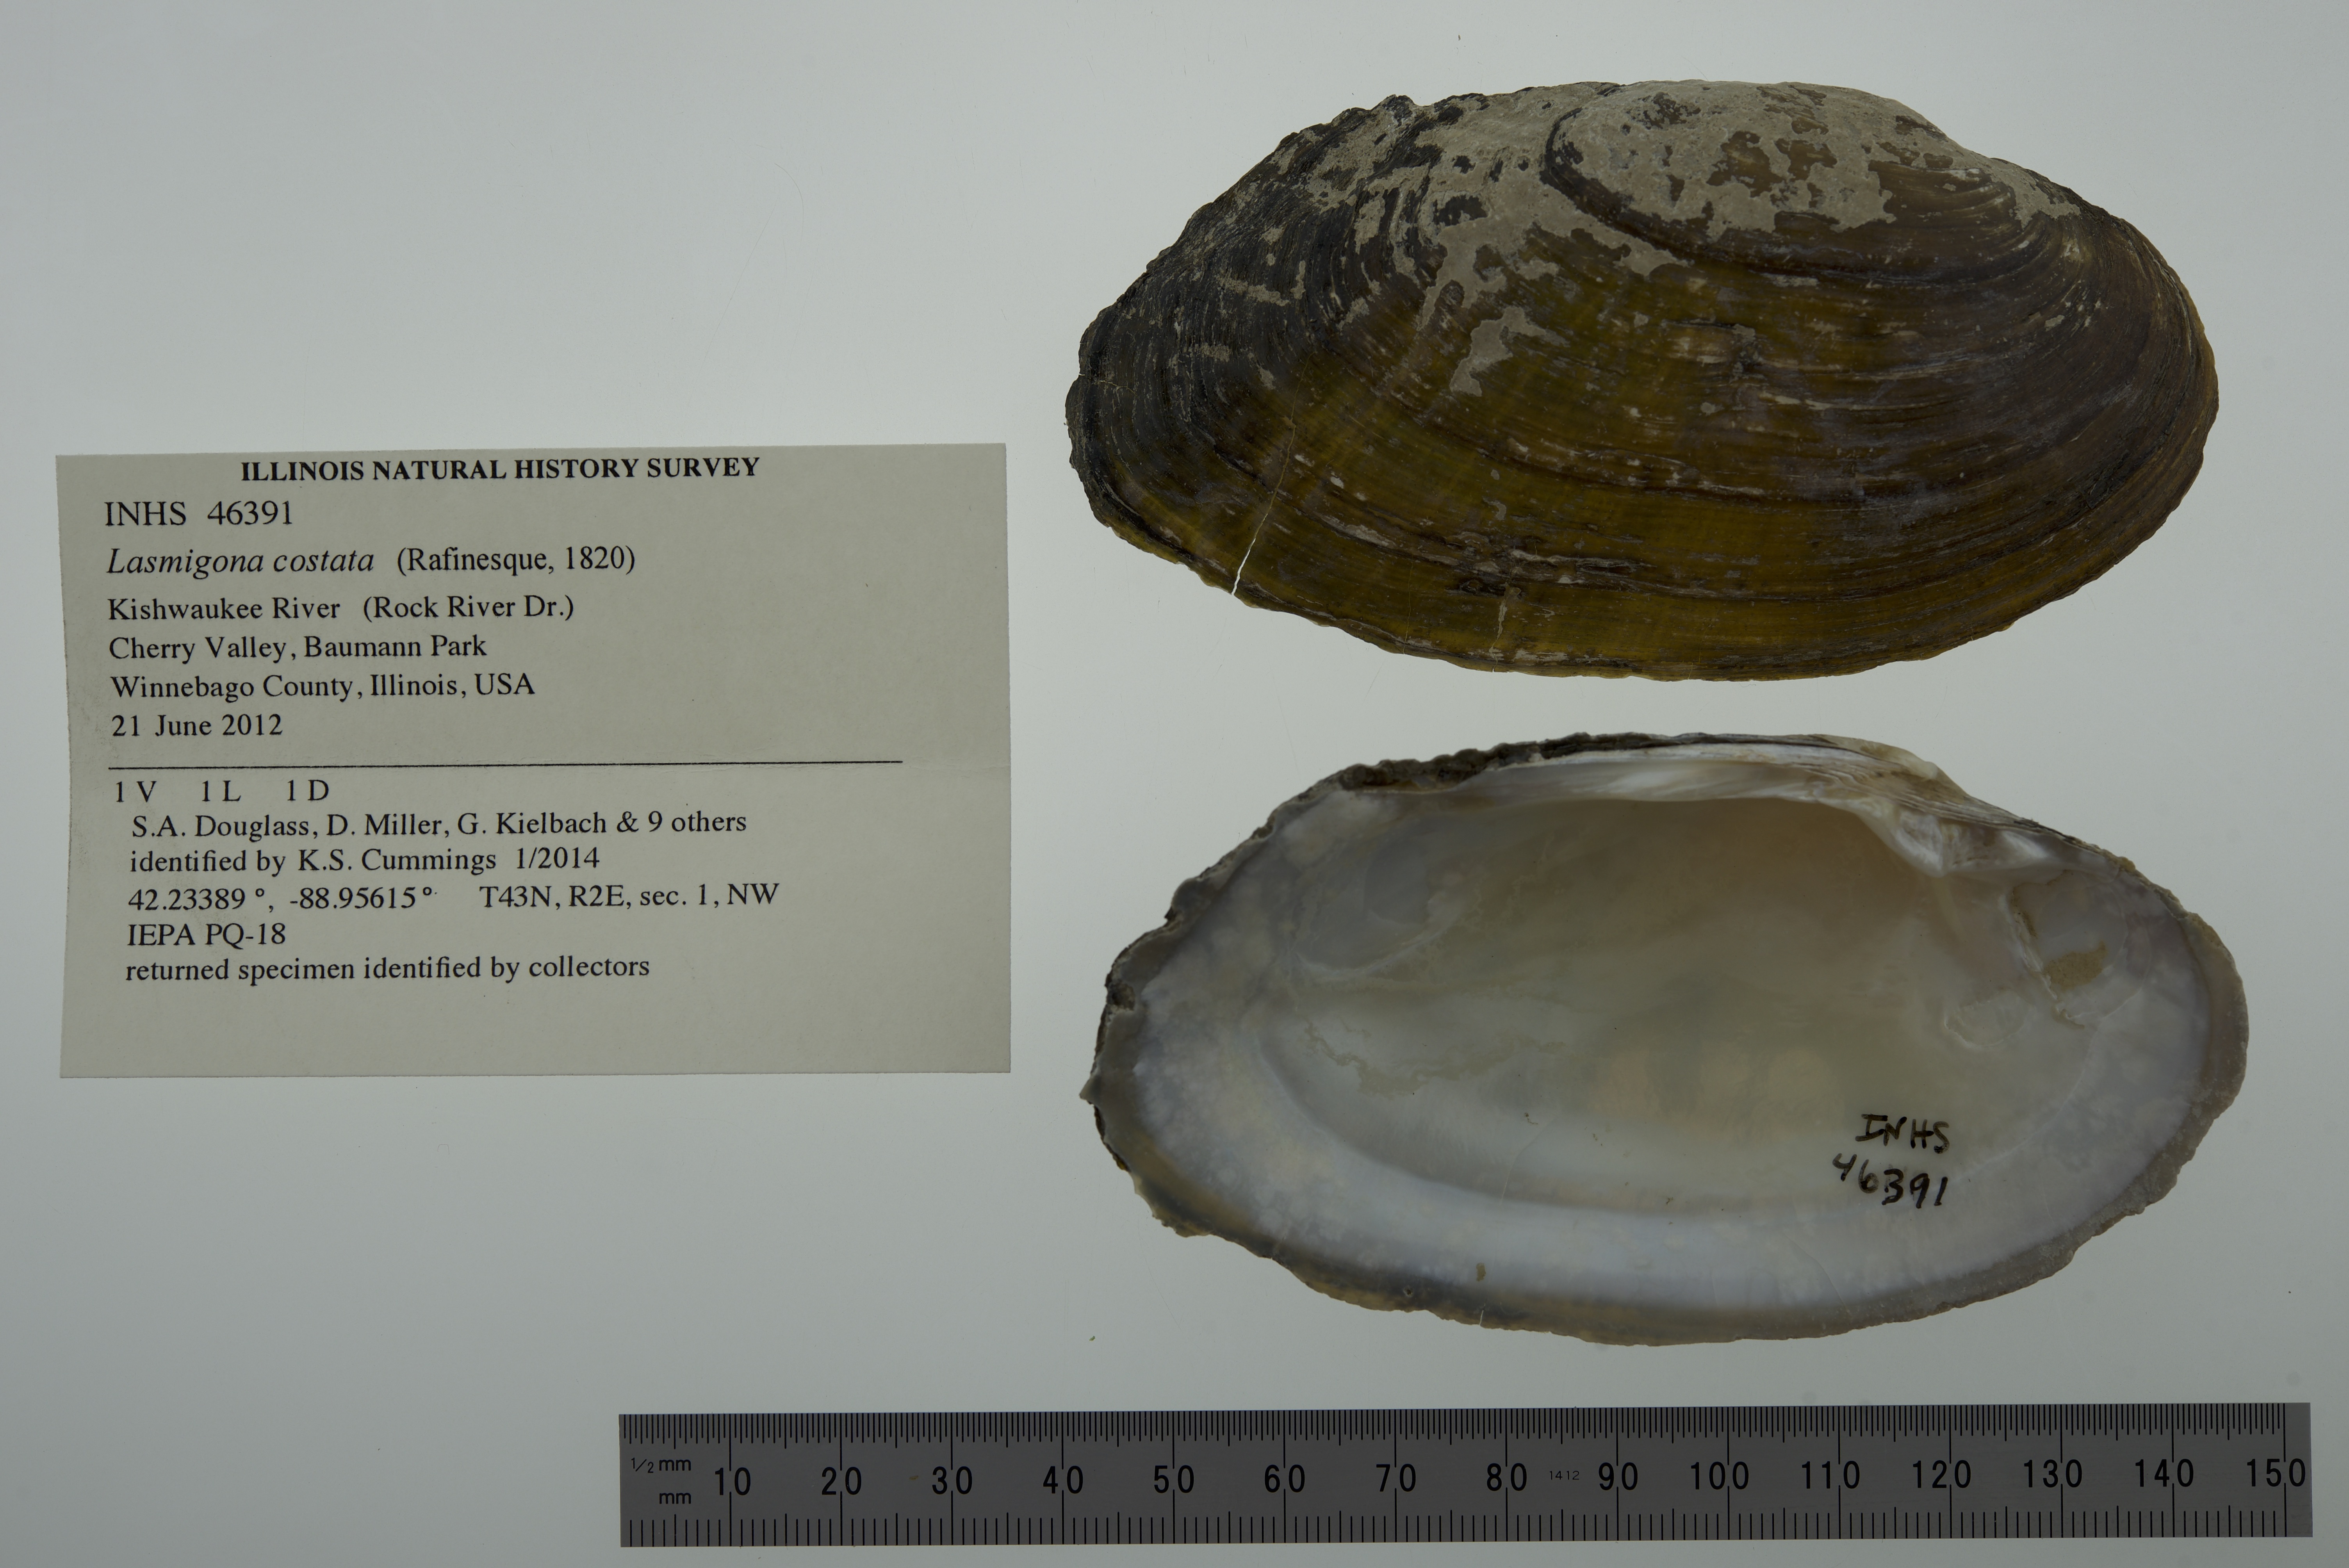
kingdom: Animalia
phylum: Mollusca
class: Bivalvia
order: Unionida
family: Unionidae
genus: Lasmigona
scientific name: Lasmigona costata
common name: Flutedshell
